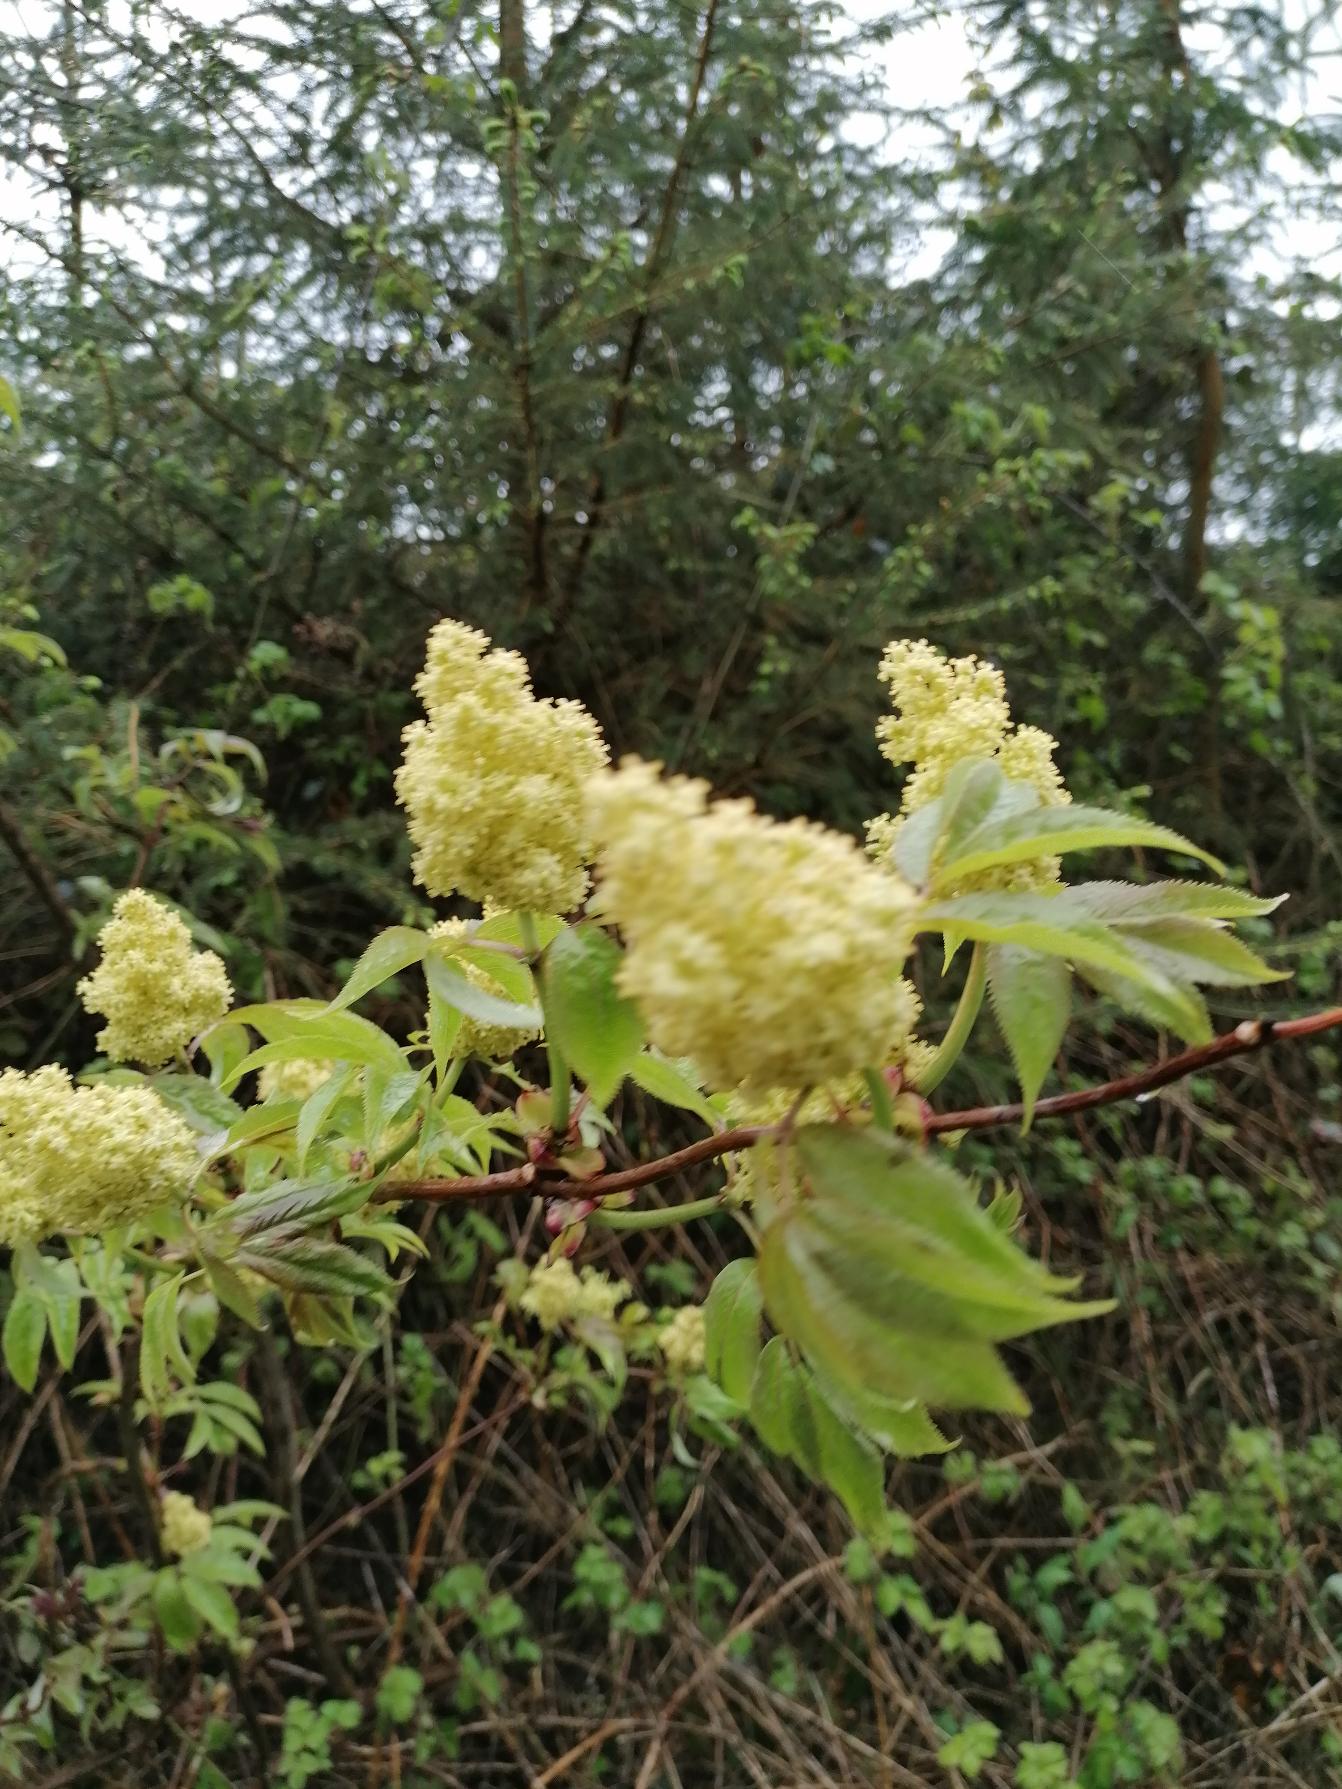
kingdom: Plantae
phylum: Tracheophyta
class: Magnoliopsida
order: Dipsacales
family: Viburnaceae
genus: Sambucus
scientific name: Sambucus racemosa
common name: Drue-hyld
